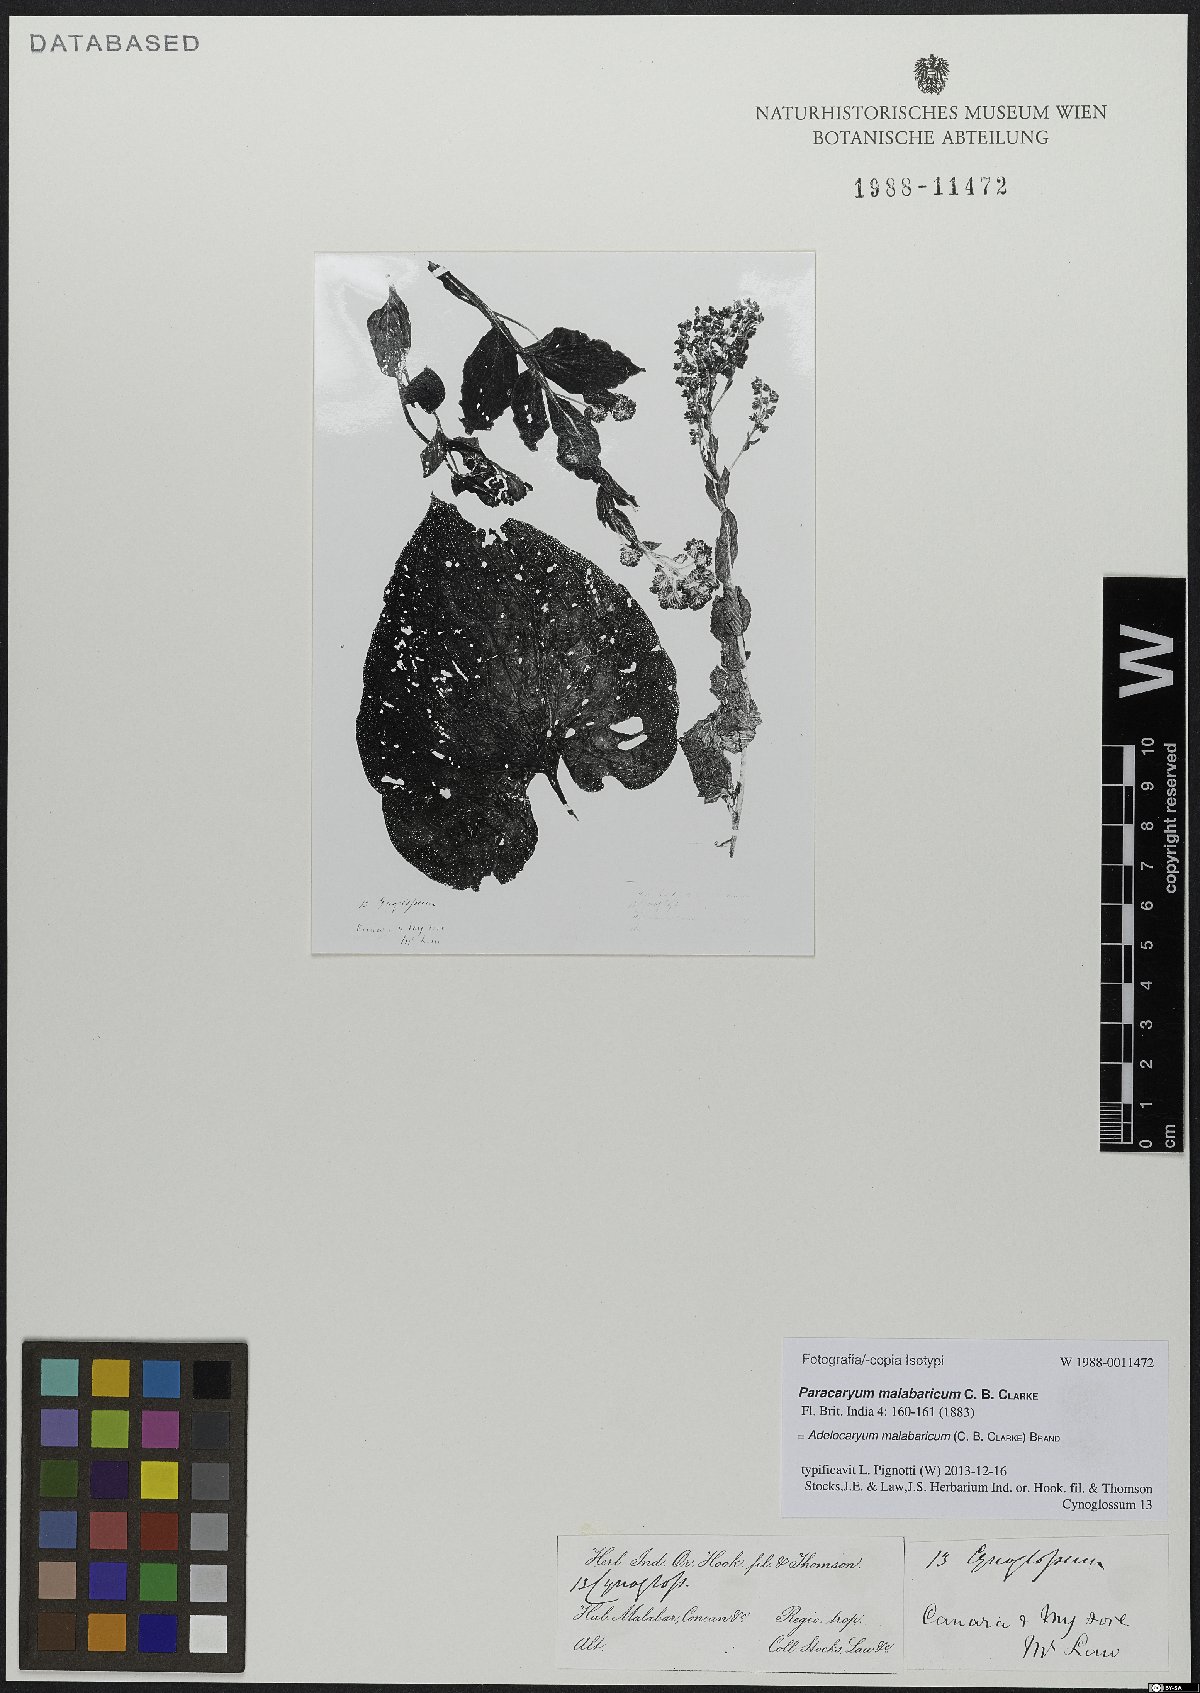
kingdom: Plantae
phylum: Tracheophyta
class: Magnoliopsida
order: Boraginales
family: Boraginaceae
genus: Paracaryum
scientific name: Paracaryum malabaricum
